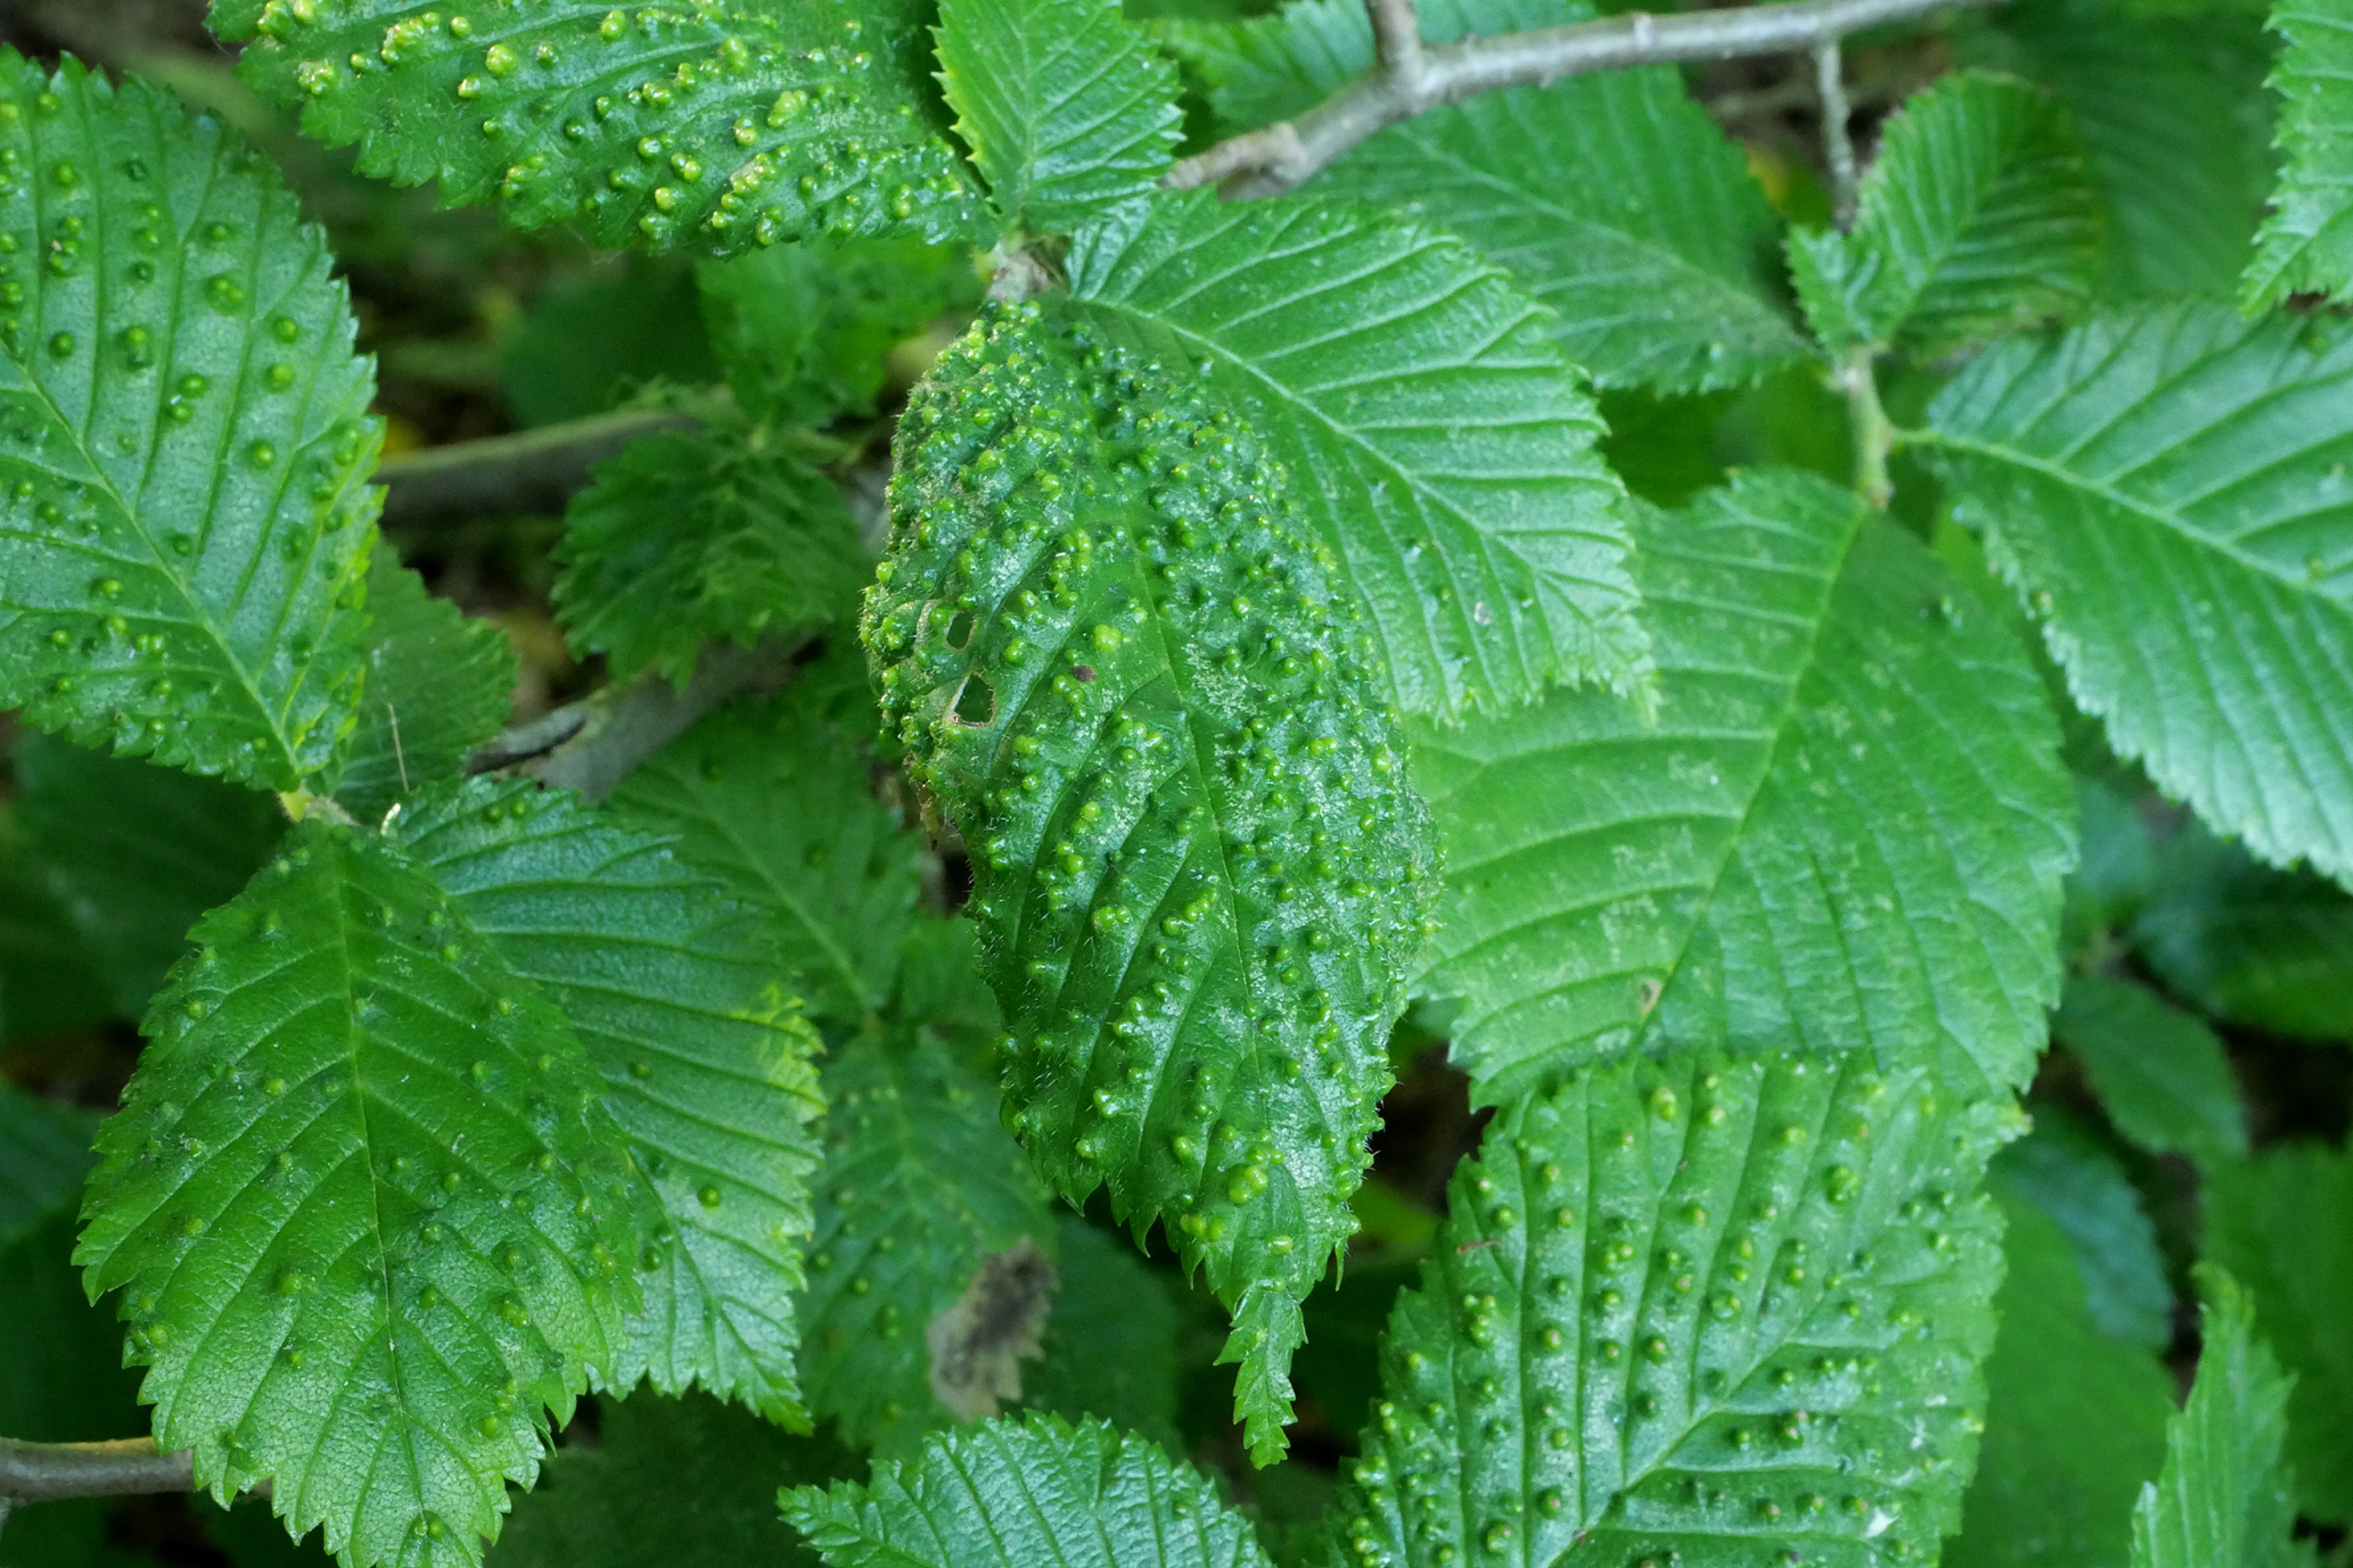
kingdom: Animalia
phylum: Arthropoda
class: Arachnida
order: Trombidiformes
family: Eriophyidae
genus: Aceria
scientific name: Aceria brevipunctata
